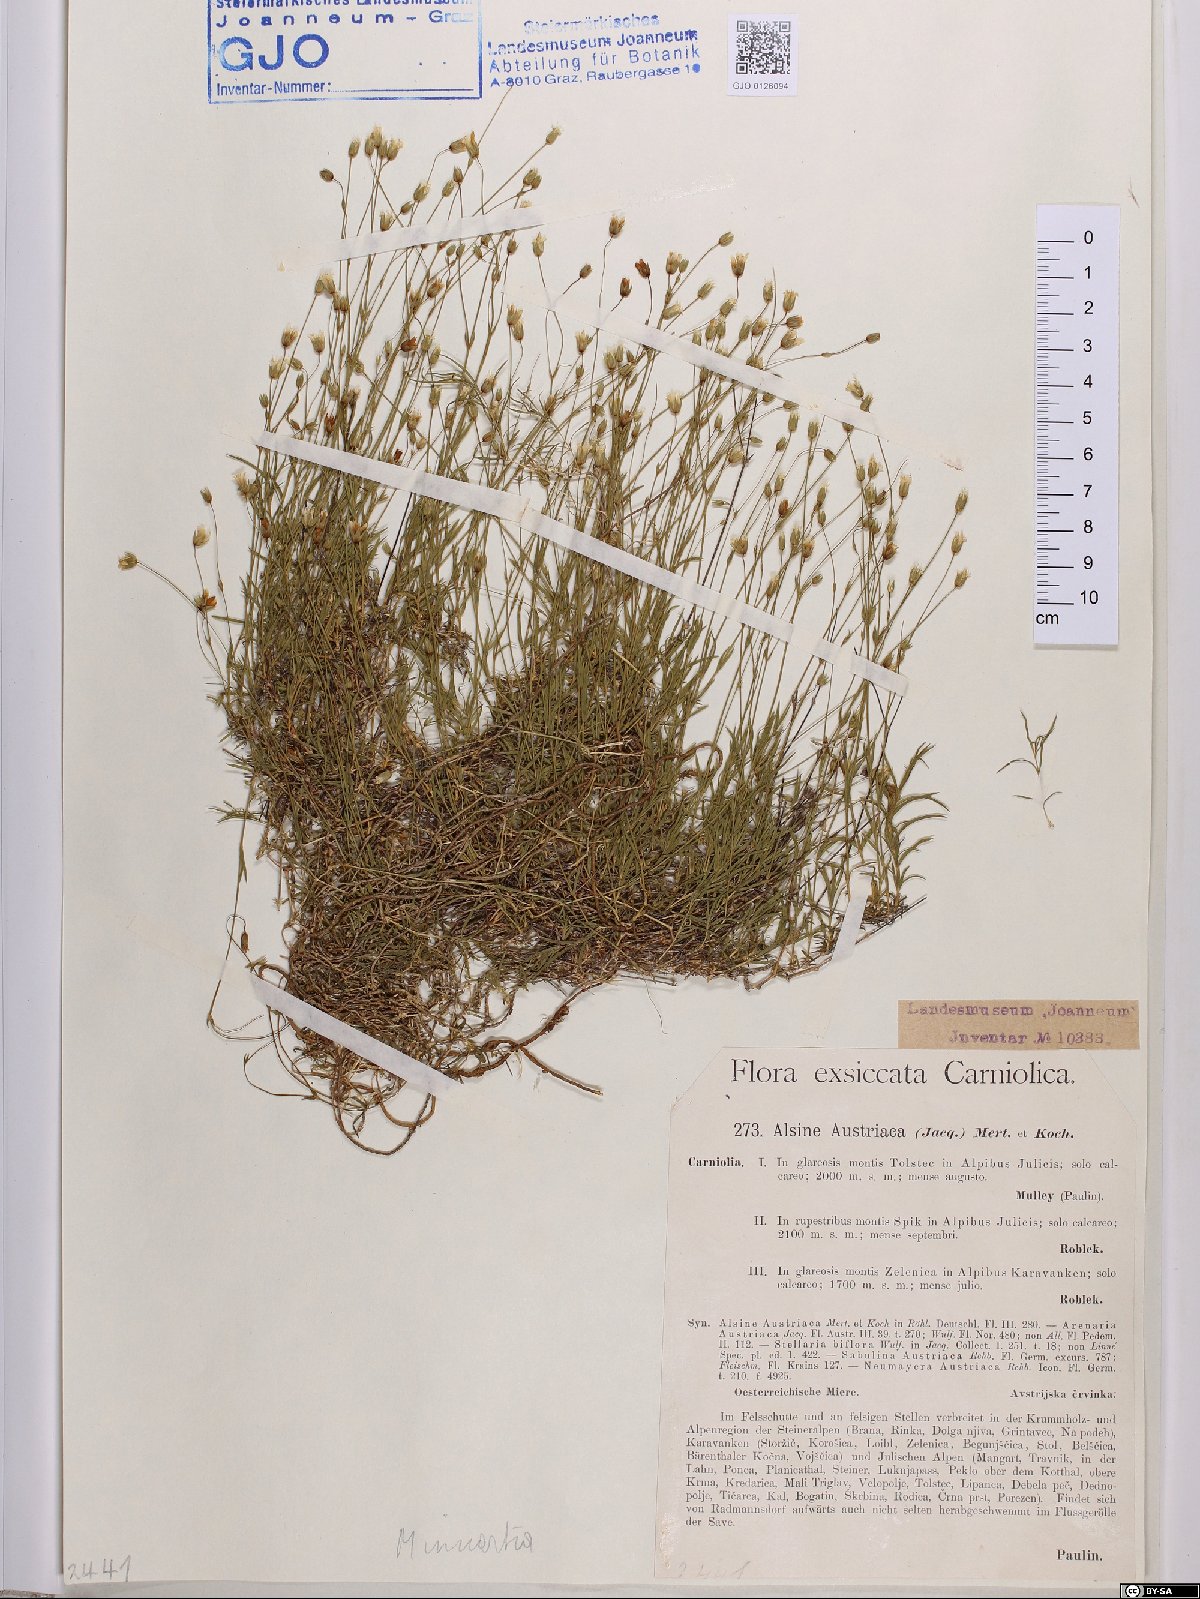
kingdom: Plantae
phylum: Tracheophyta
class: Magnoliopsida
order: Caryophyllales
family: Caryophyllaceae
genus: Sabulina
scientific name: Sabulina austriaca
